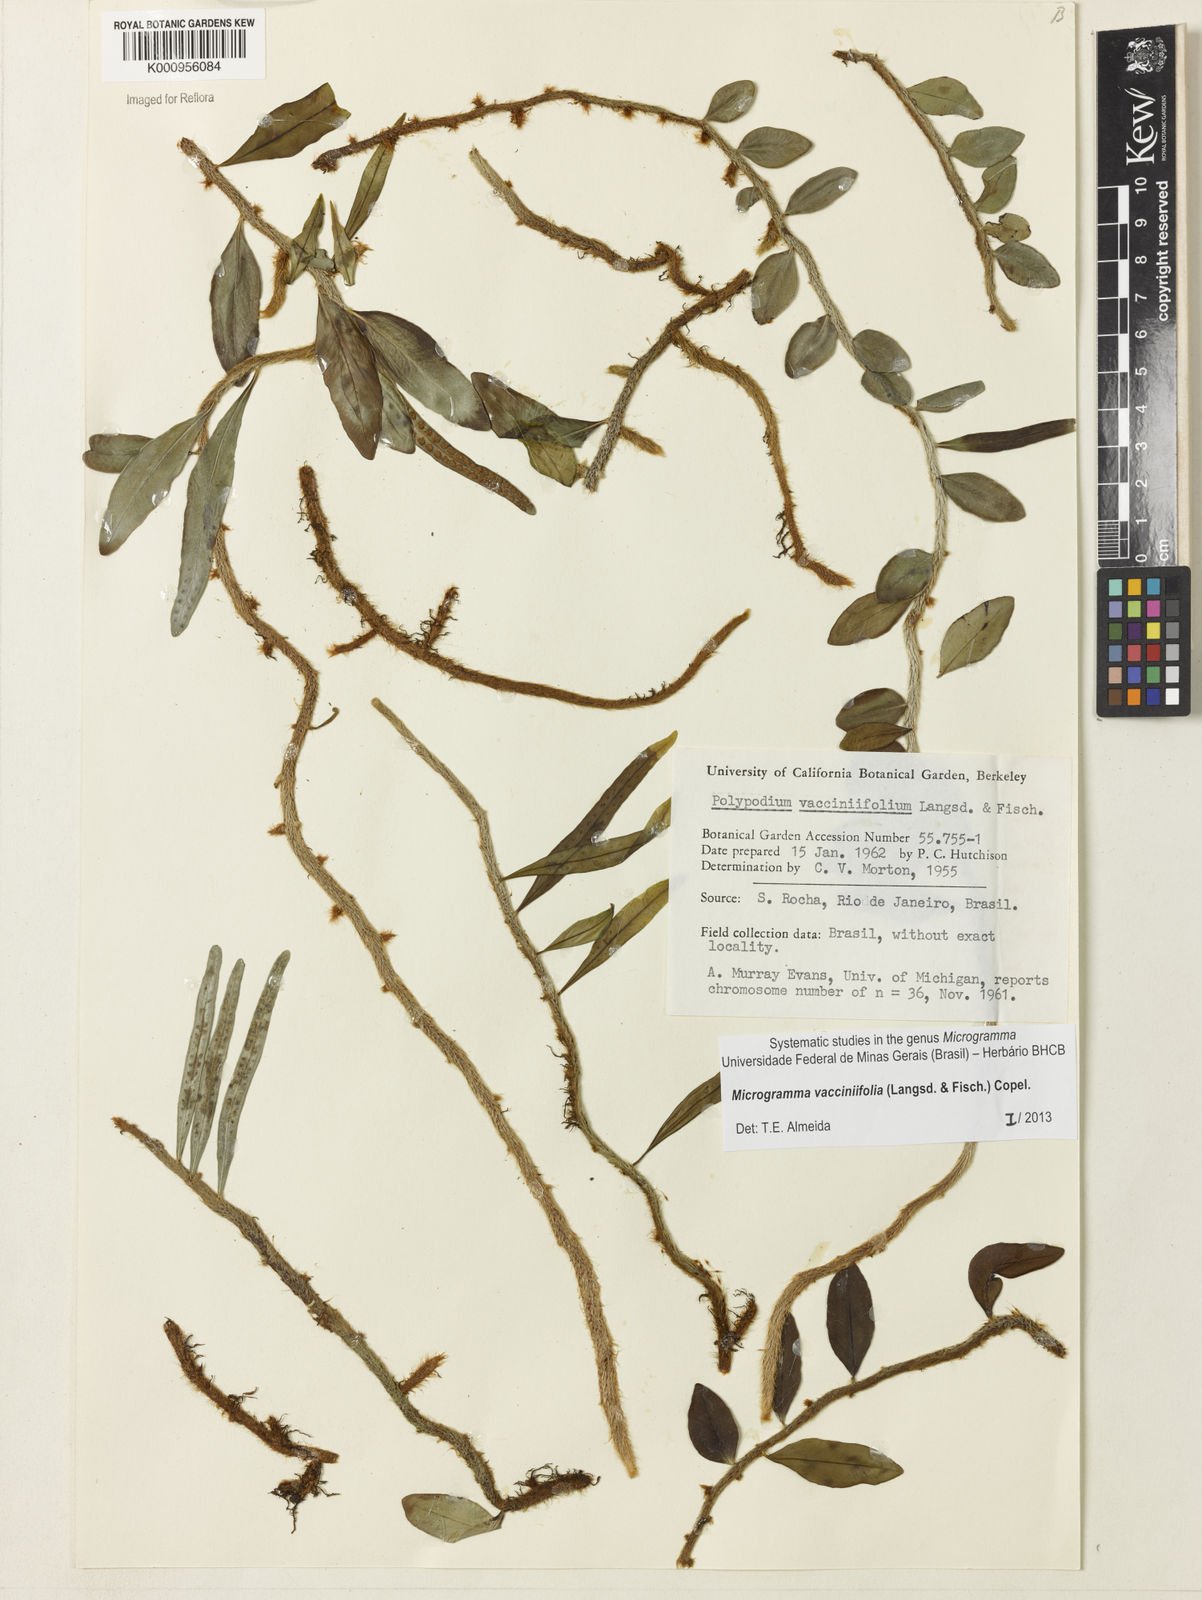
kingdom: Plantae
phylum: Tracheophyta
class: Polypodiopsida
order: Polypodiales
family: Polypodiaceae
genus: Phlebodium
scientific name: Phlebodium
